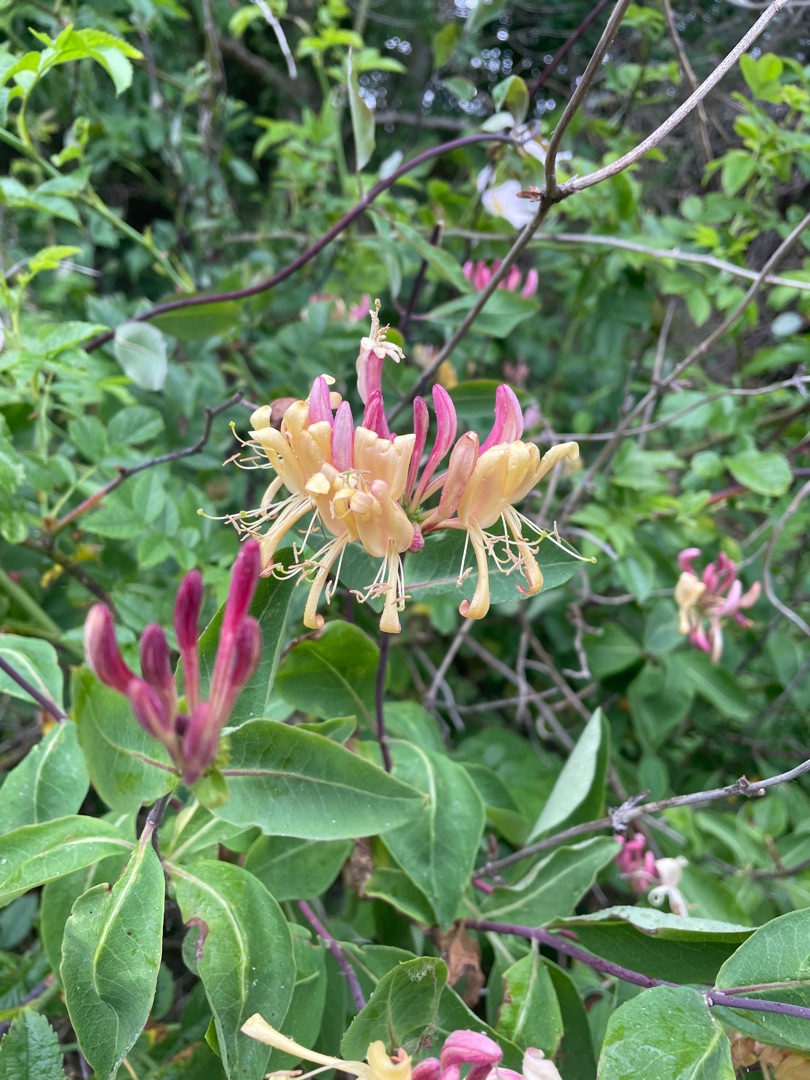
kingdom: Plantae
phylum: Tracheophyta
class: Magnoliopsida
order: Dipsacales
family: Caprifoliaceae
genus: Lonicera
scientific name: Lonicera periclymenum
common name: Almindelig gedeblad
